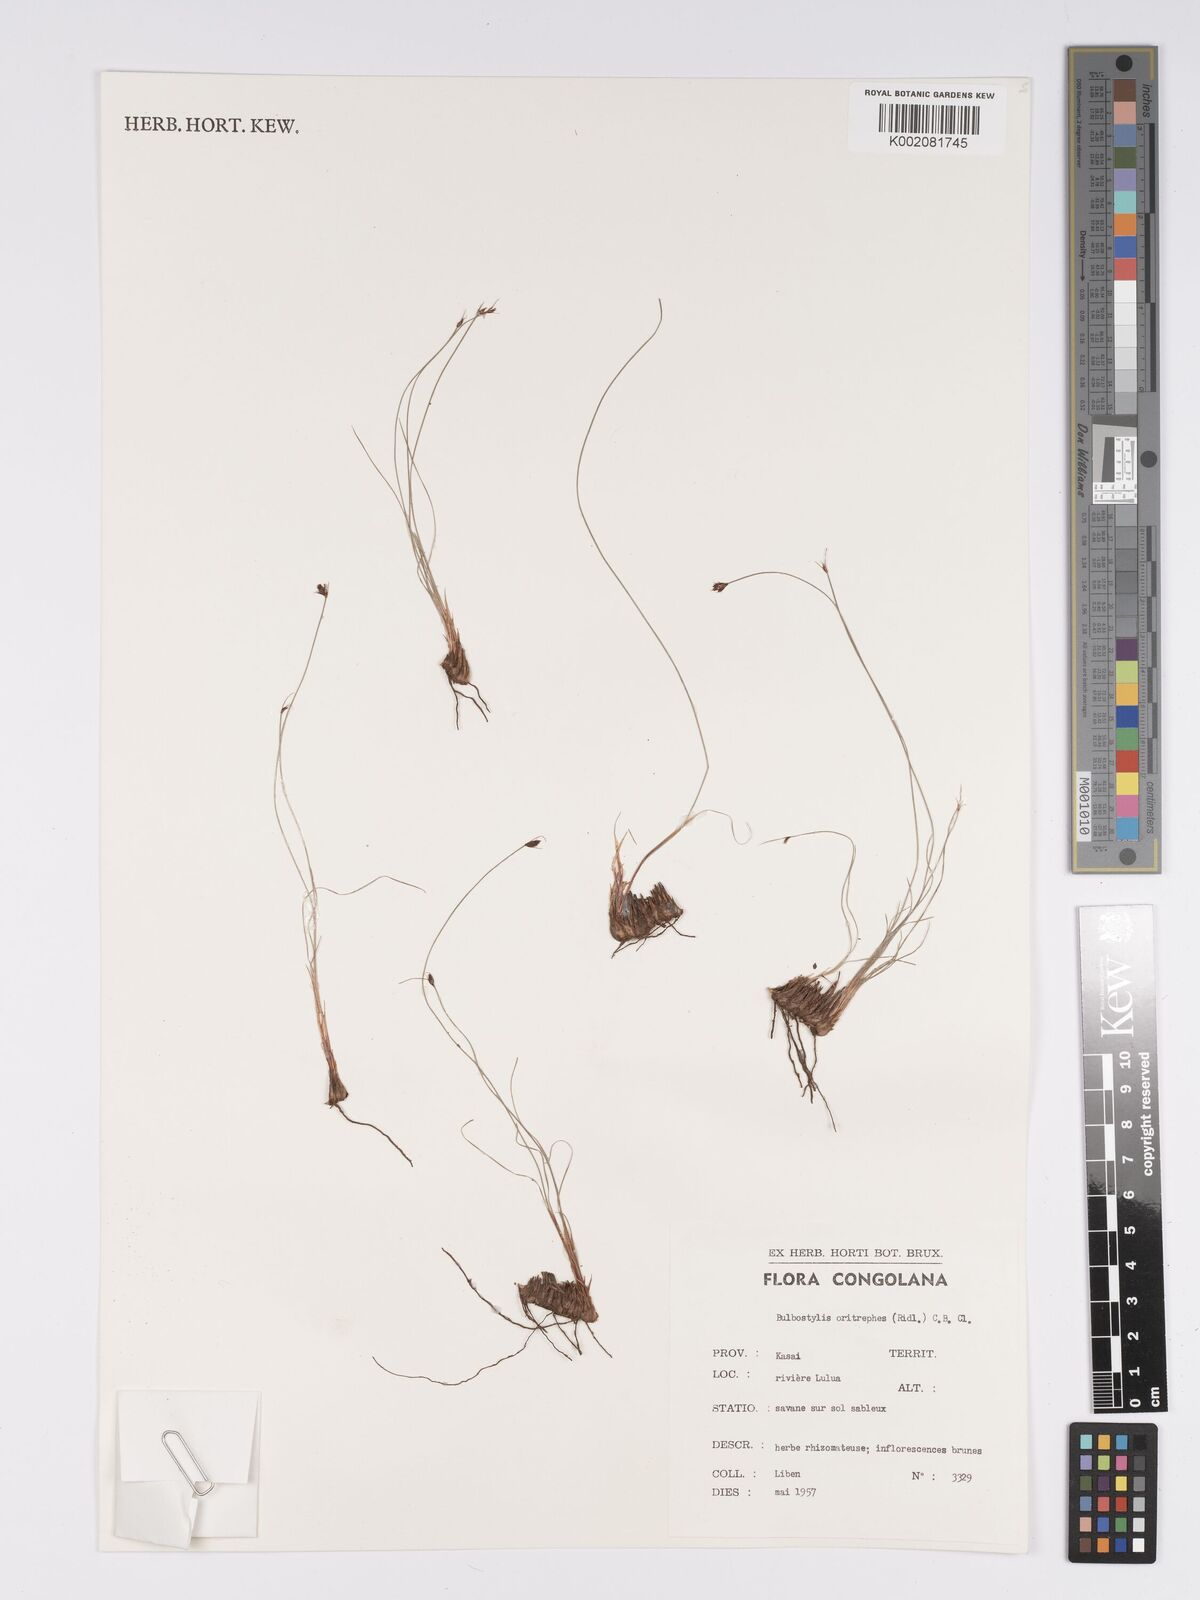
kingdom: Plantae
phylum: Tracheophyta
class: Liliopsida
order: Poales
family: Cyperaceae
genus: Bulbostylis
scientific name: Bulbostylis oritrephes
